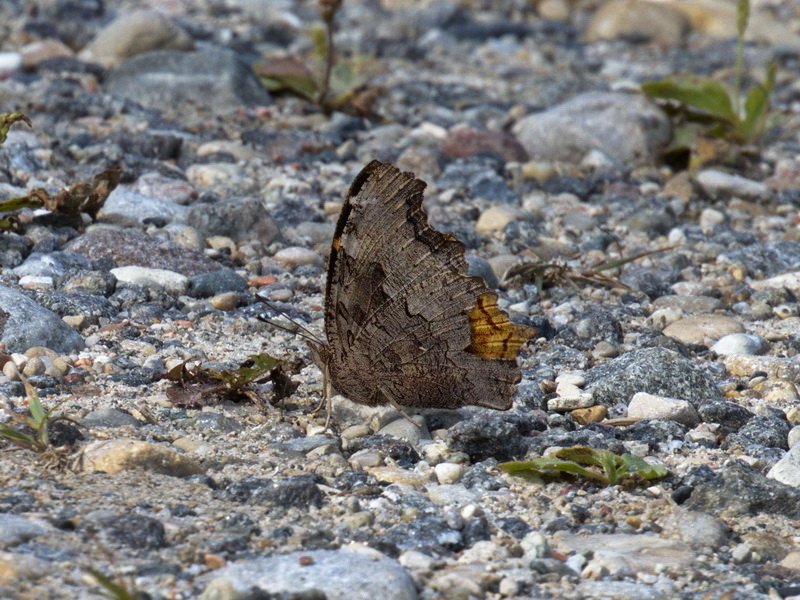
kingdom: Animalia
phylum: Arthropoda
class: Insecta
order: Lepidoptera
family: Nymphalidae
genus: Polygonia
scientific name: Polygonia vaualbum
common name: Compton Tortoiseshell
